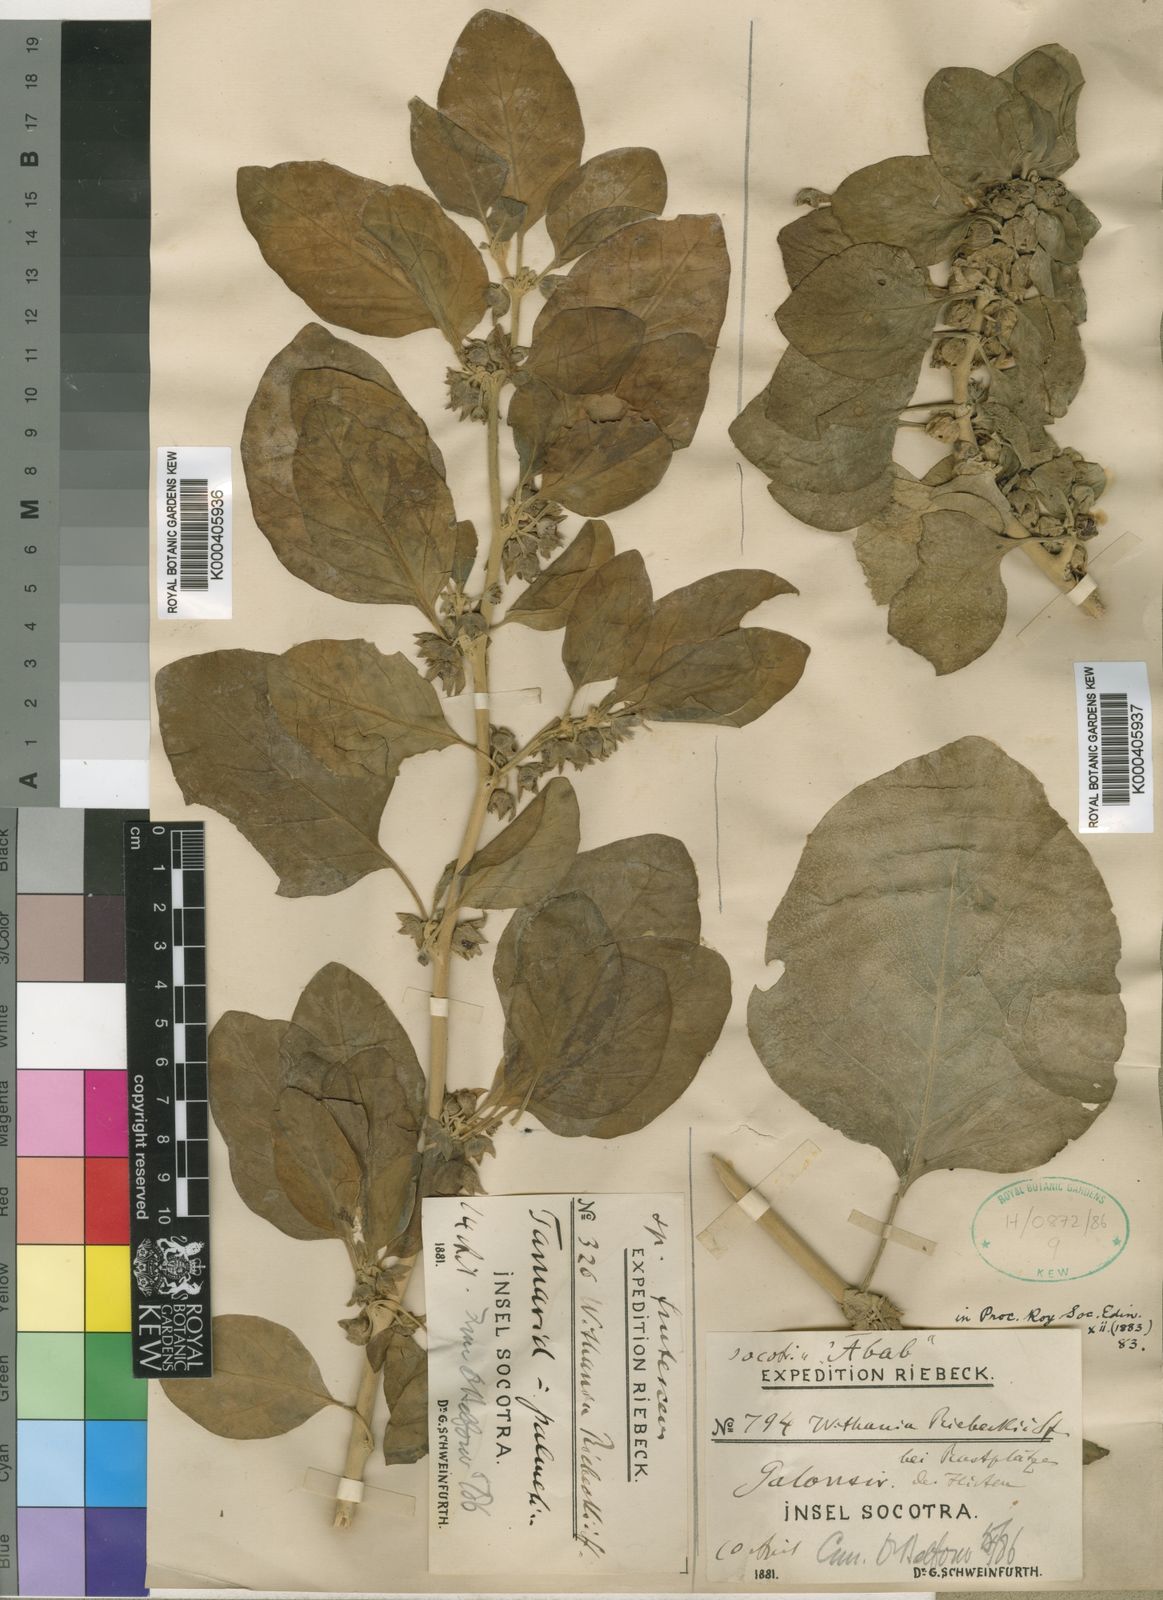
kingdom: Plantae
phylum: Tracheophyta
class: Magnoliopsida
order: Solanales
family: Solanaceae
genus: Withania
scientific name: Withania riebeckii
